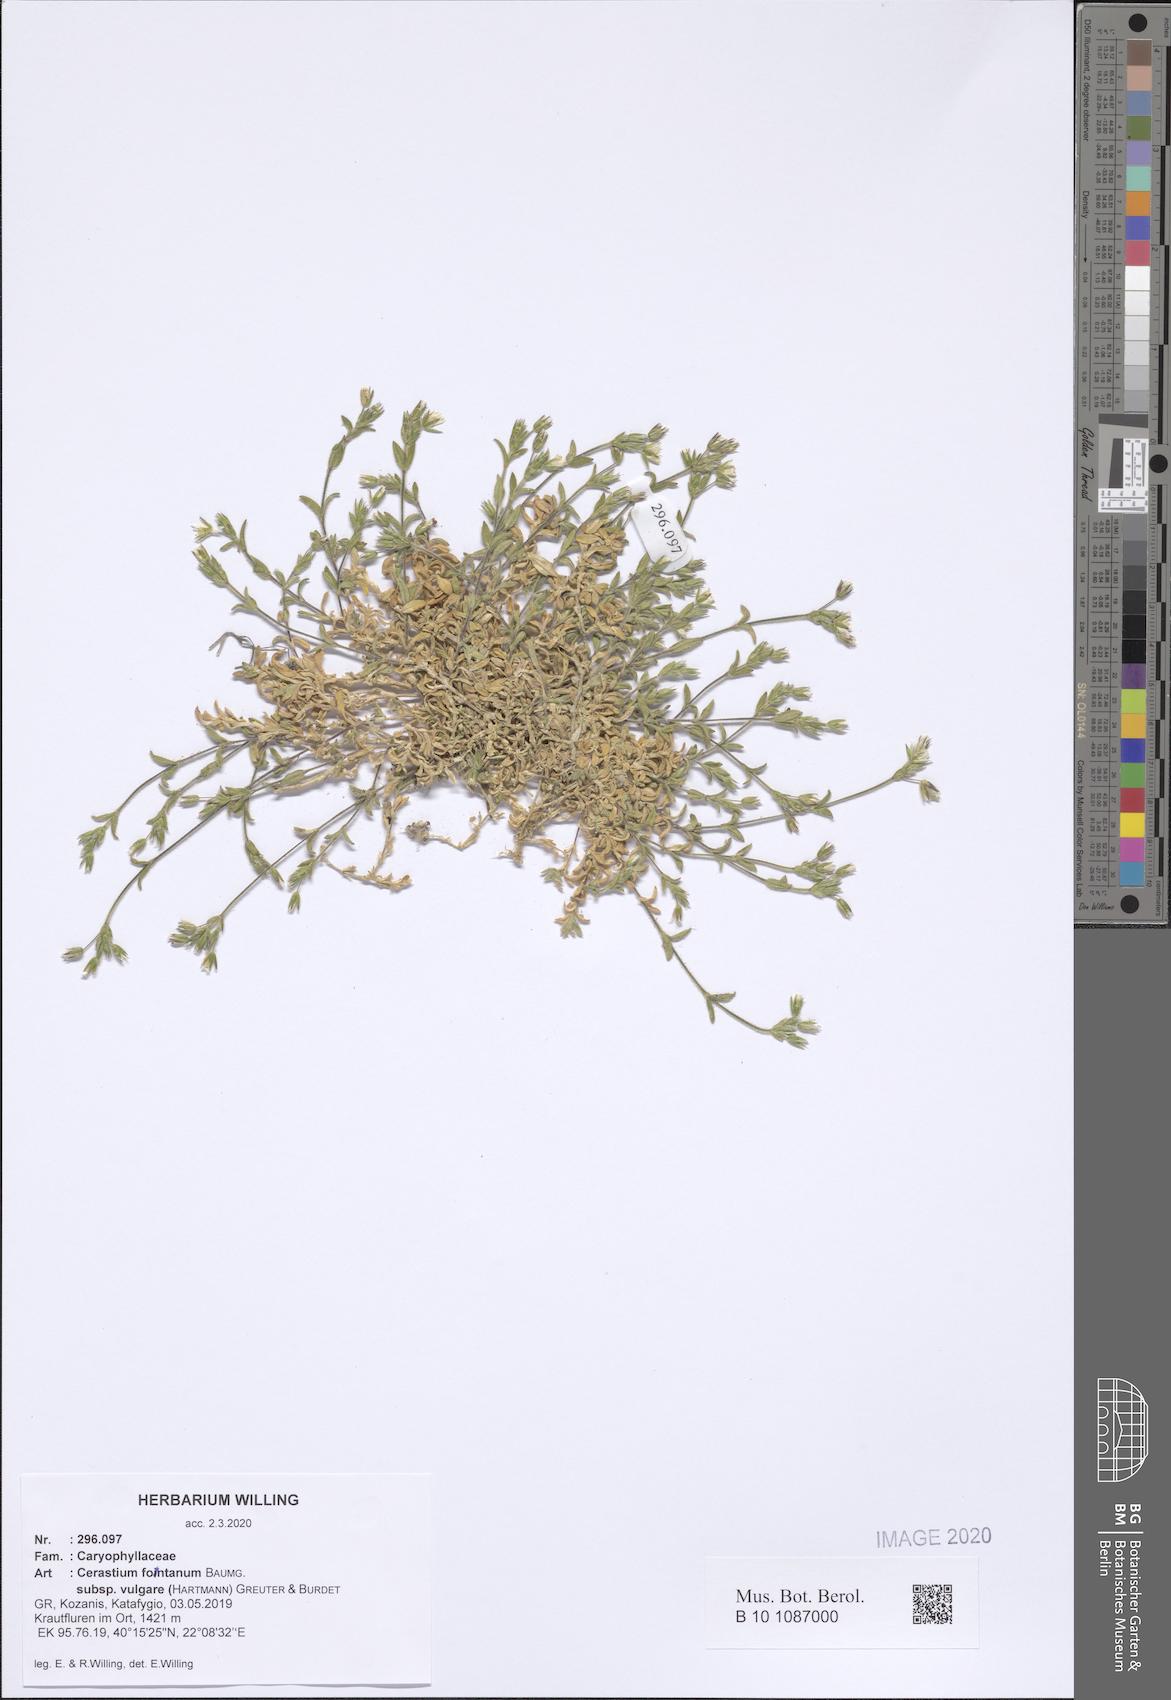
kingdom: Plantae
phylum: Tracheophyta
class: Magnoliopsida
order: Caryophyllales
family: Caryophyllaceae
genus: Cerastium
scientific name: Cerastium holosteoides
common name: Big chickweed
